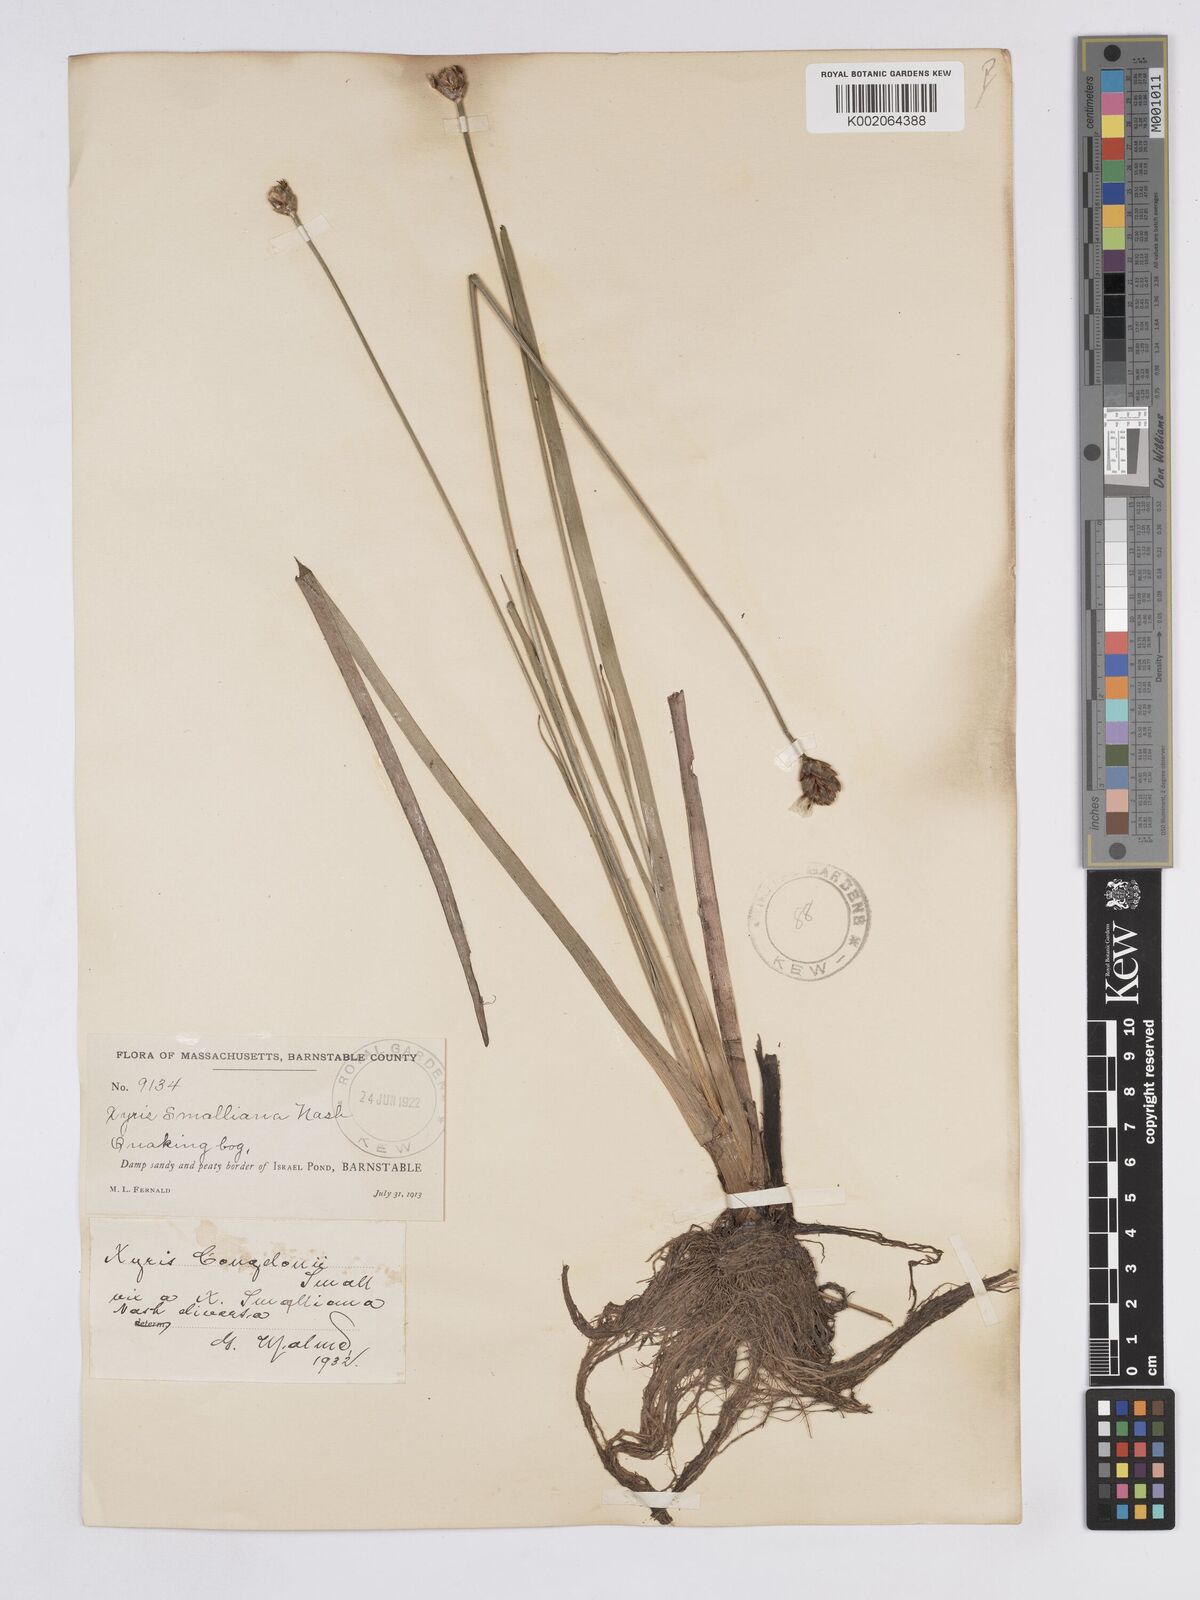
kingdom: Plantae
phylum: Tracheophyta
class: Liliopsida
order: Poales
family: Xyridaceae
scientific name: Xyridaceae
